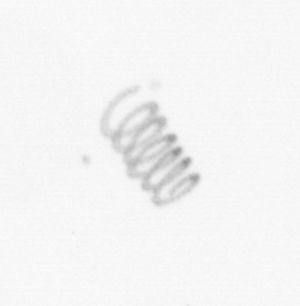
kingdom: Chromista
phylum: Ochrophyta
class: Bacillariophyceae
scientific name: Bacillariophyceae
